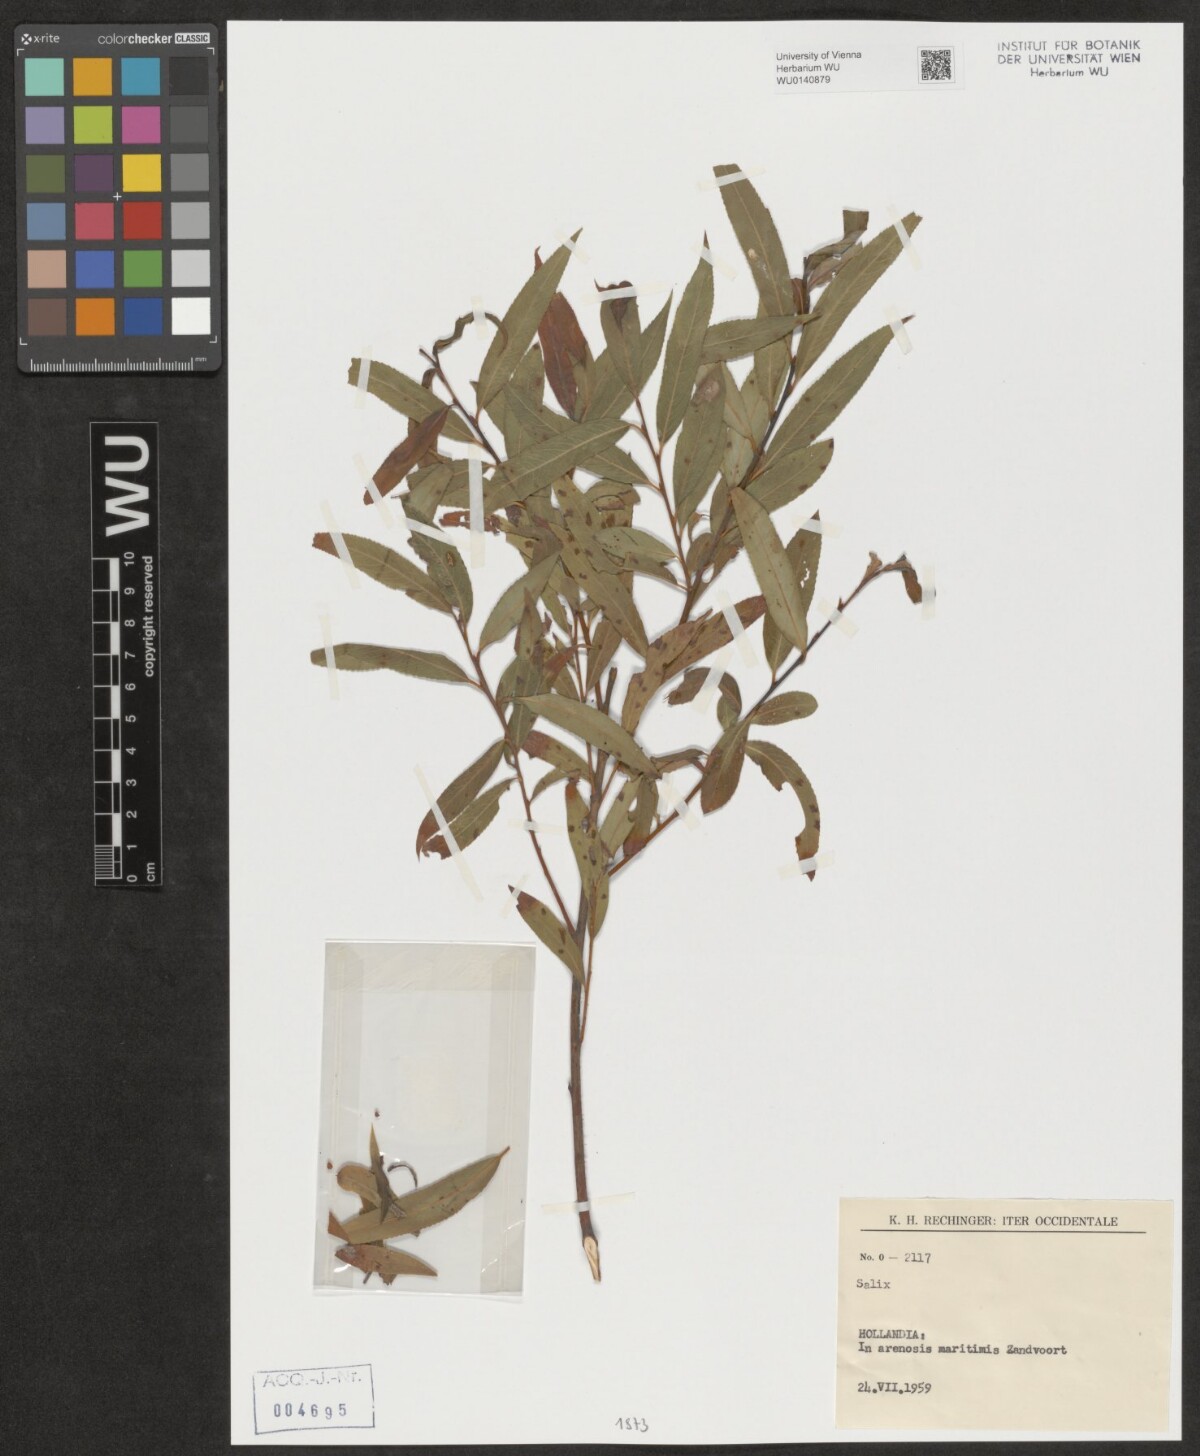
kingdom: Plantae
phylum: Tracheophyta
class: Magnoliopsida
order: Malpighiales
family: Salicaceae
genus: Salix
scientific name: Salix
